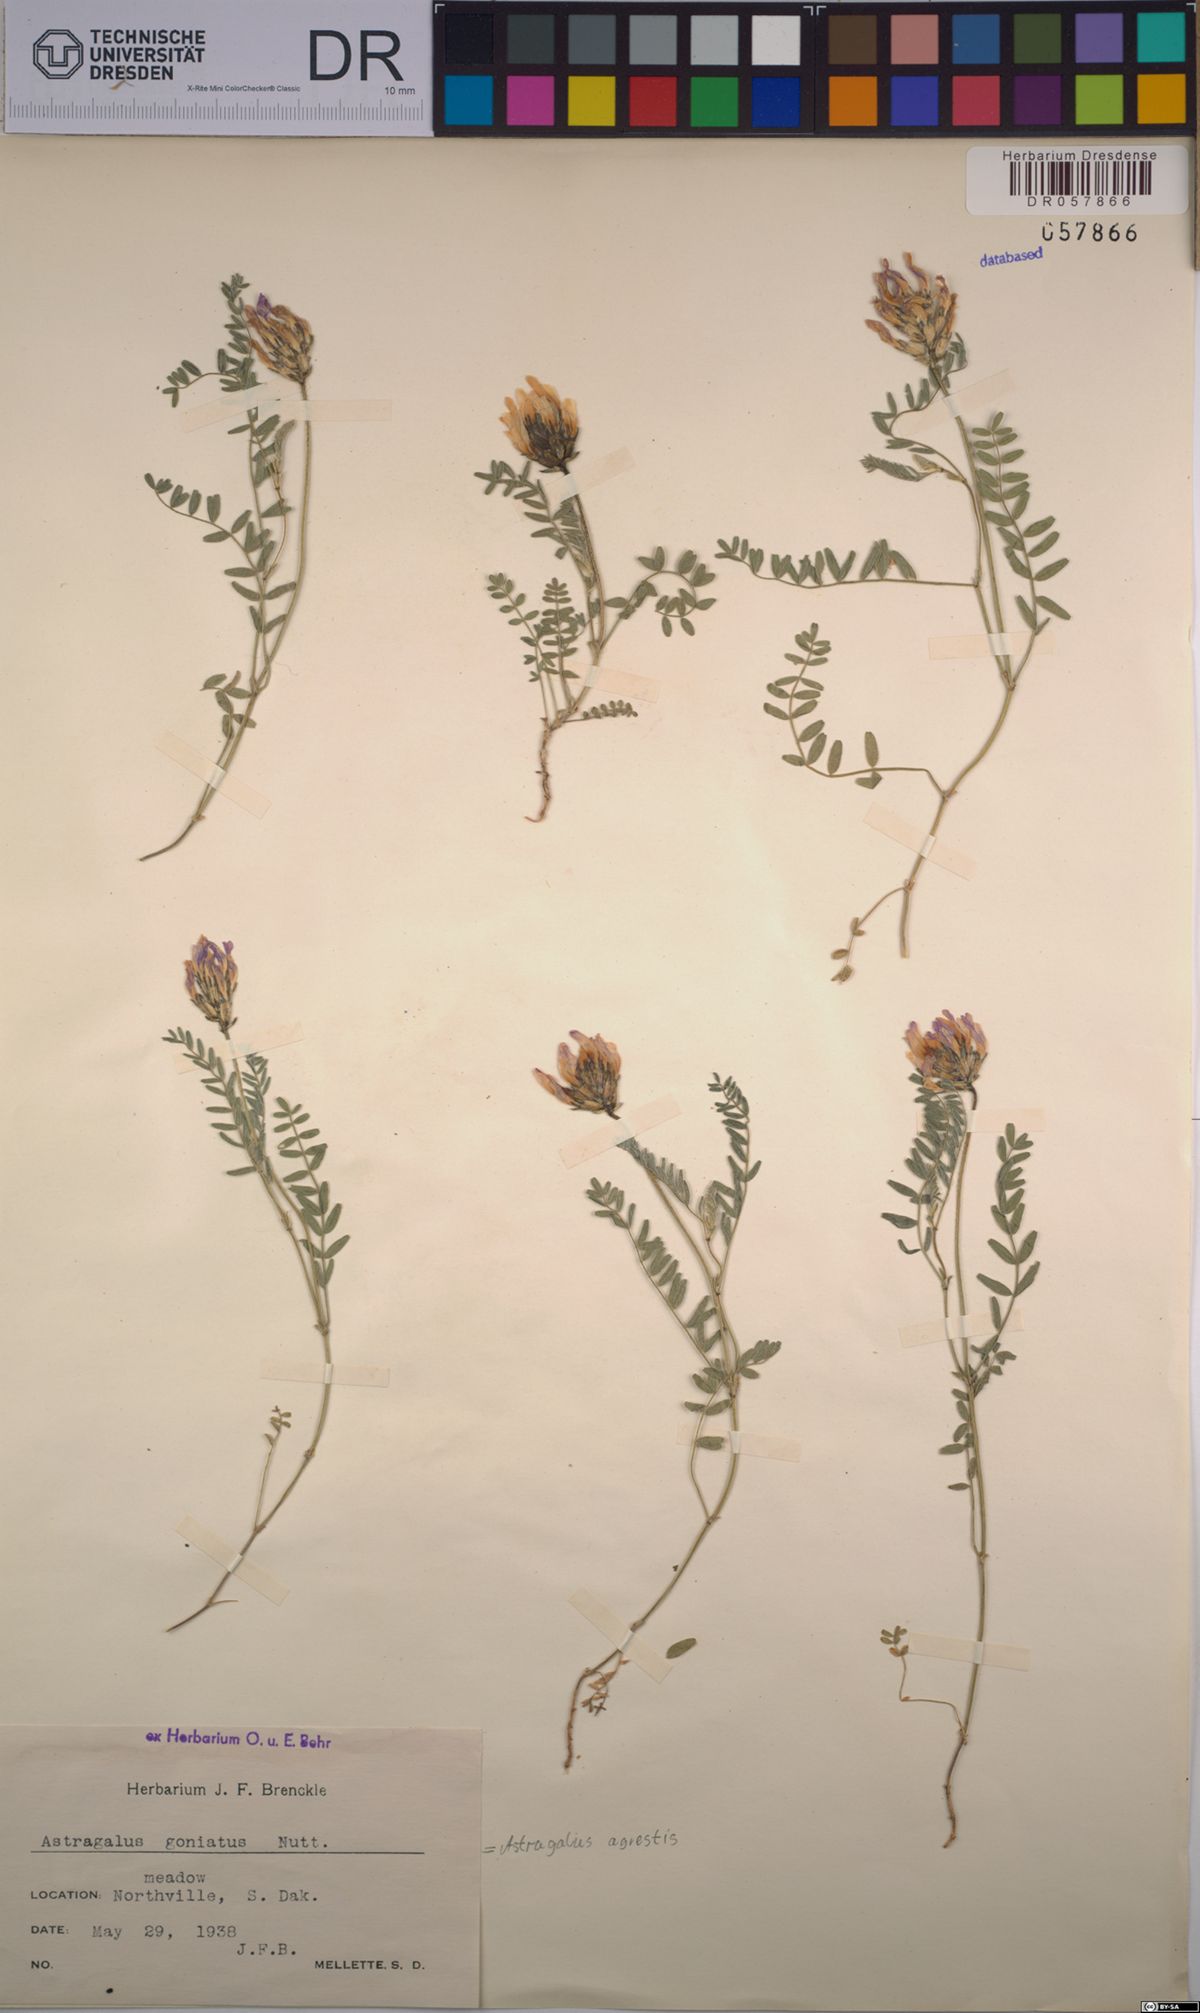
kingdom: Plantae
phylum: Tracheophyta
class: Magnoliopsida
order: Fabales
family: Fabaceae
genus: Astragalus
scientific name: Astragalus agrestis
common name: Field milk-vetch
